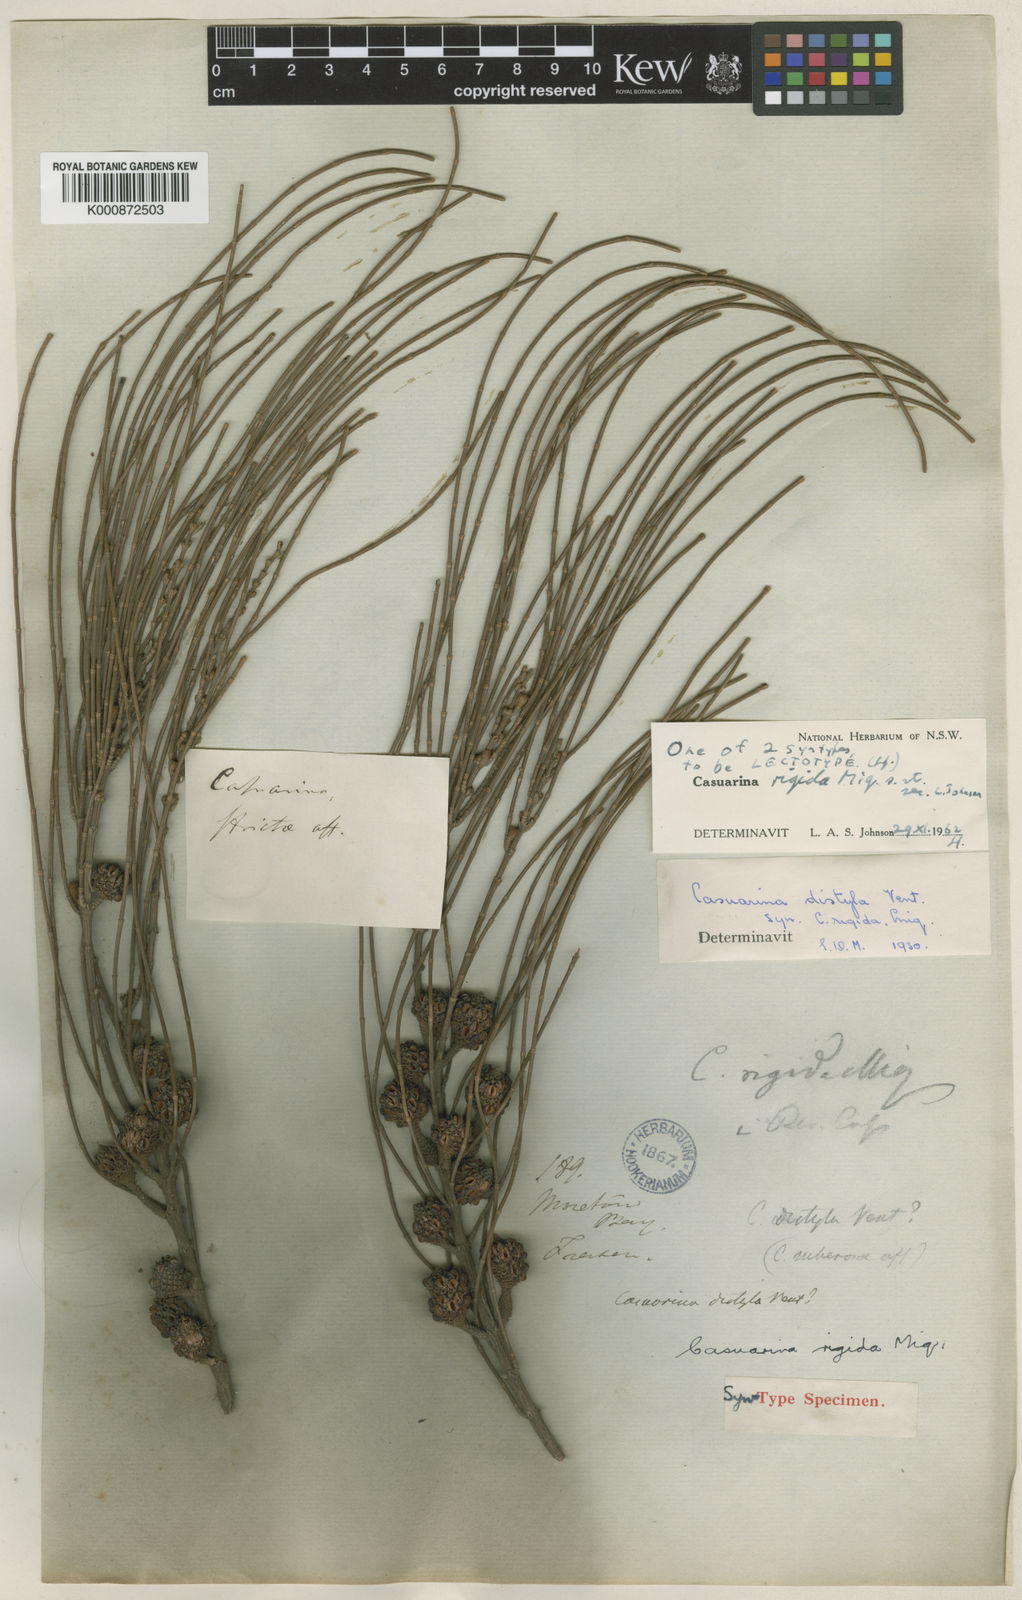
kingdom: Plantae
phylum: Tracheophyta
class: Magnoliopsida
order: Fagales
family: Casuarinaceae
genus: Allocasuarina
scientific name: Allocasuarina rigida
